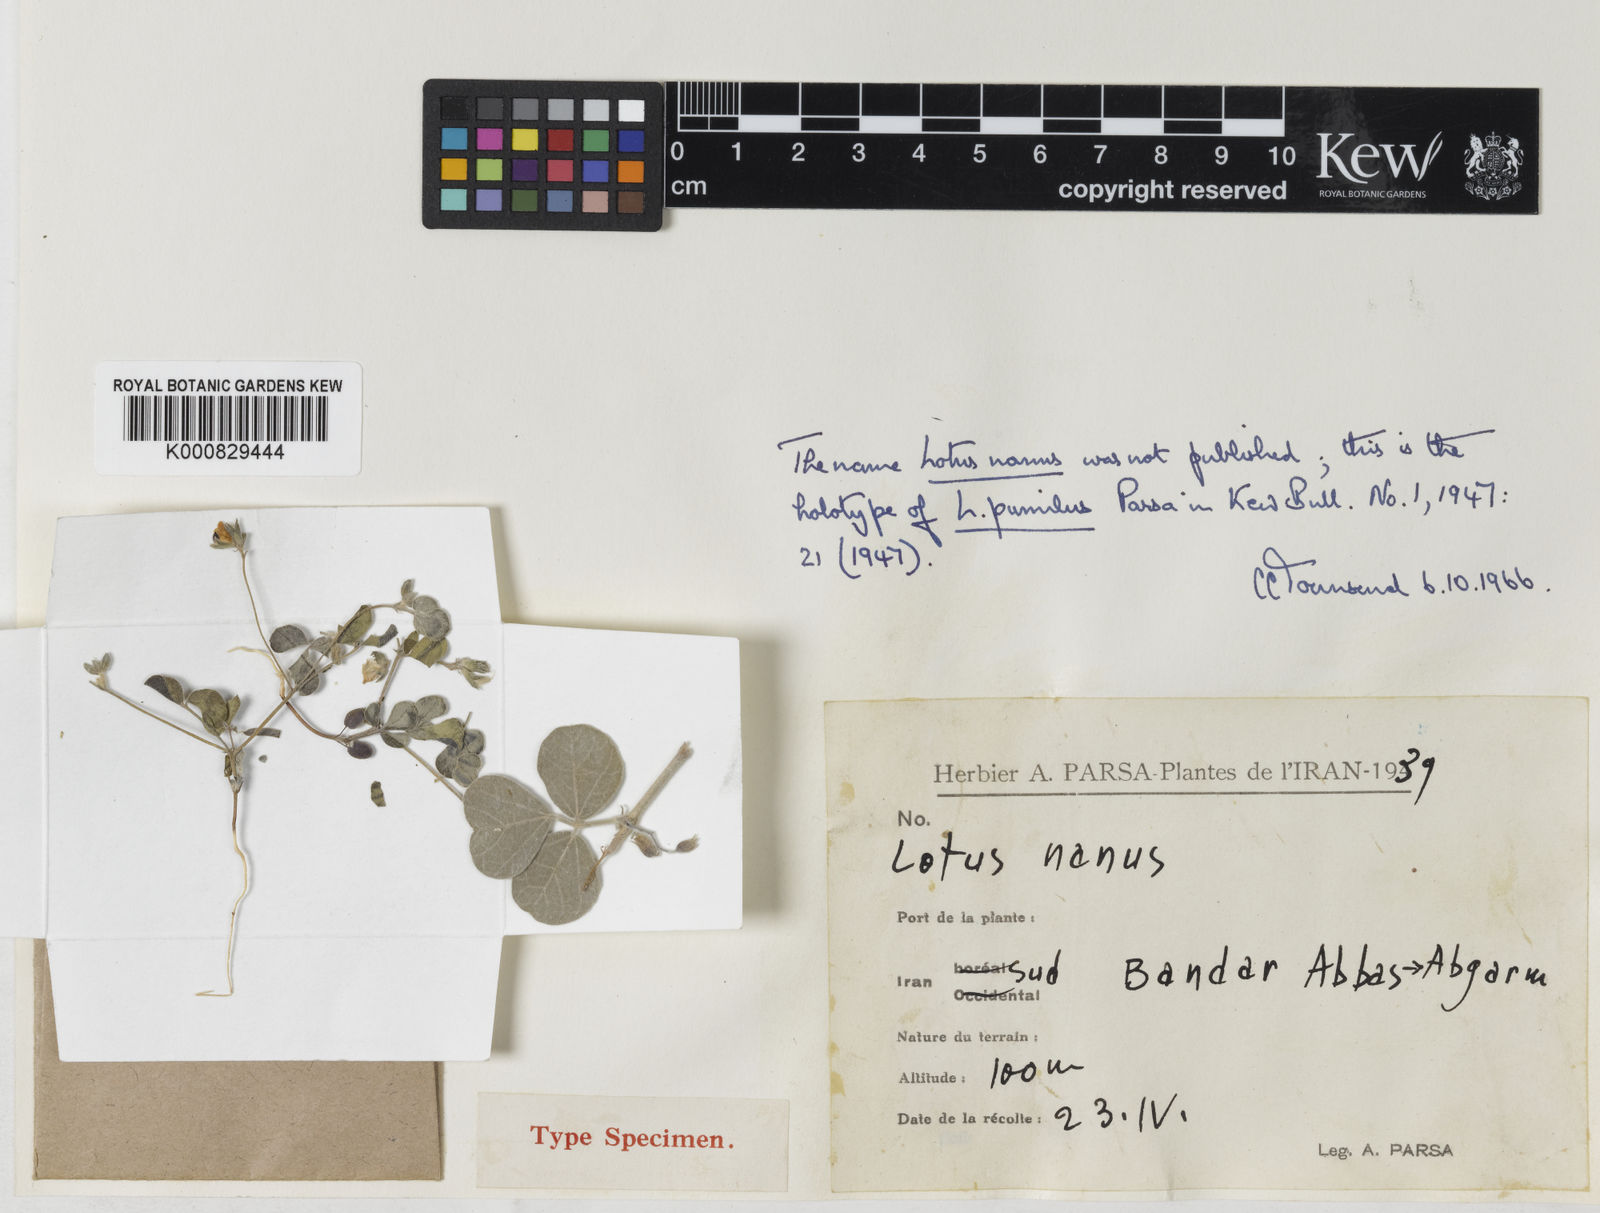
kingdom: Plantae
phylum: Tracheophyta
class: Magnoliopsida
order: Fabales
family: Fabaceae
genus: Argyrolobium
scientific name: Argyrolobium roseum
